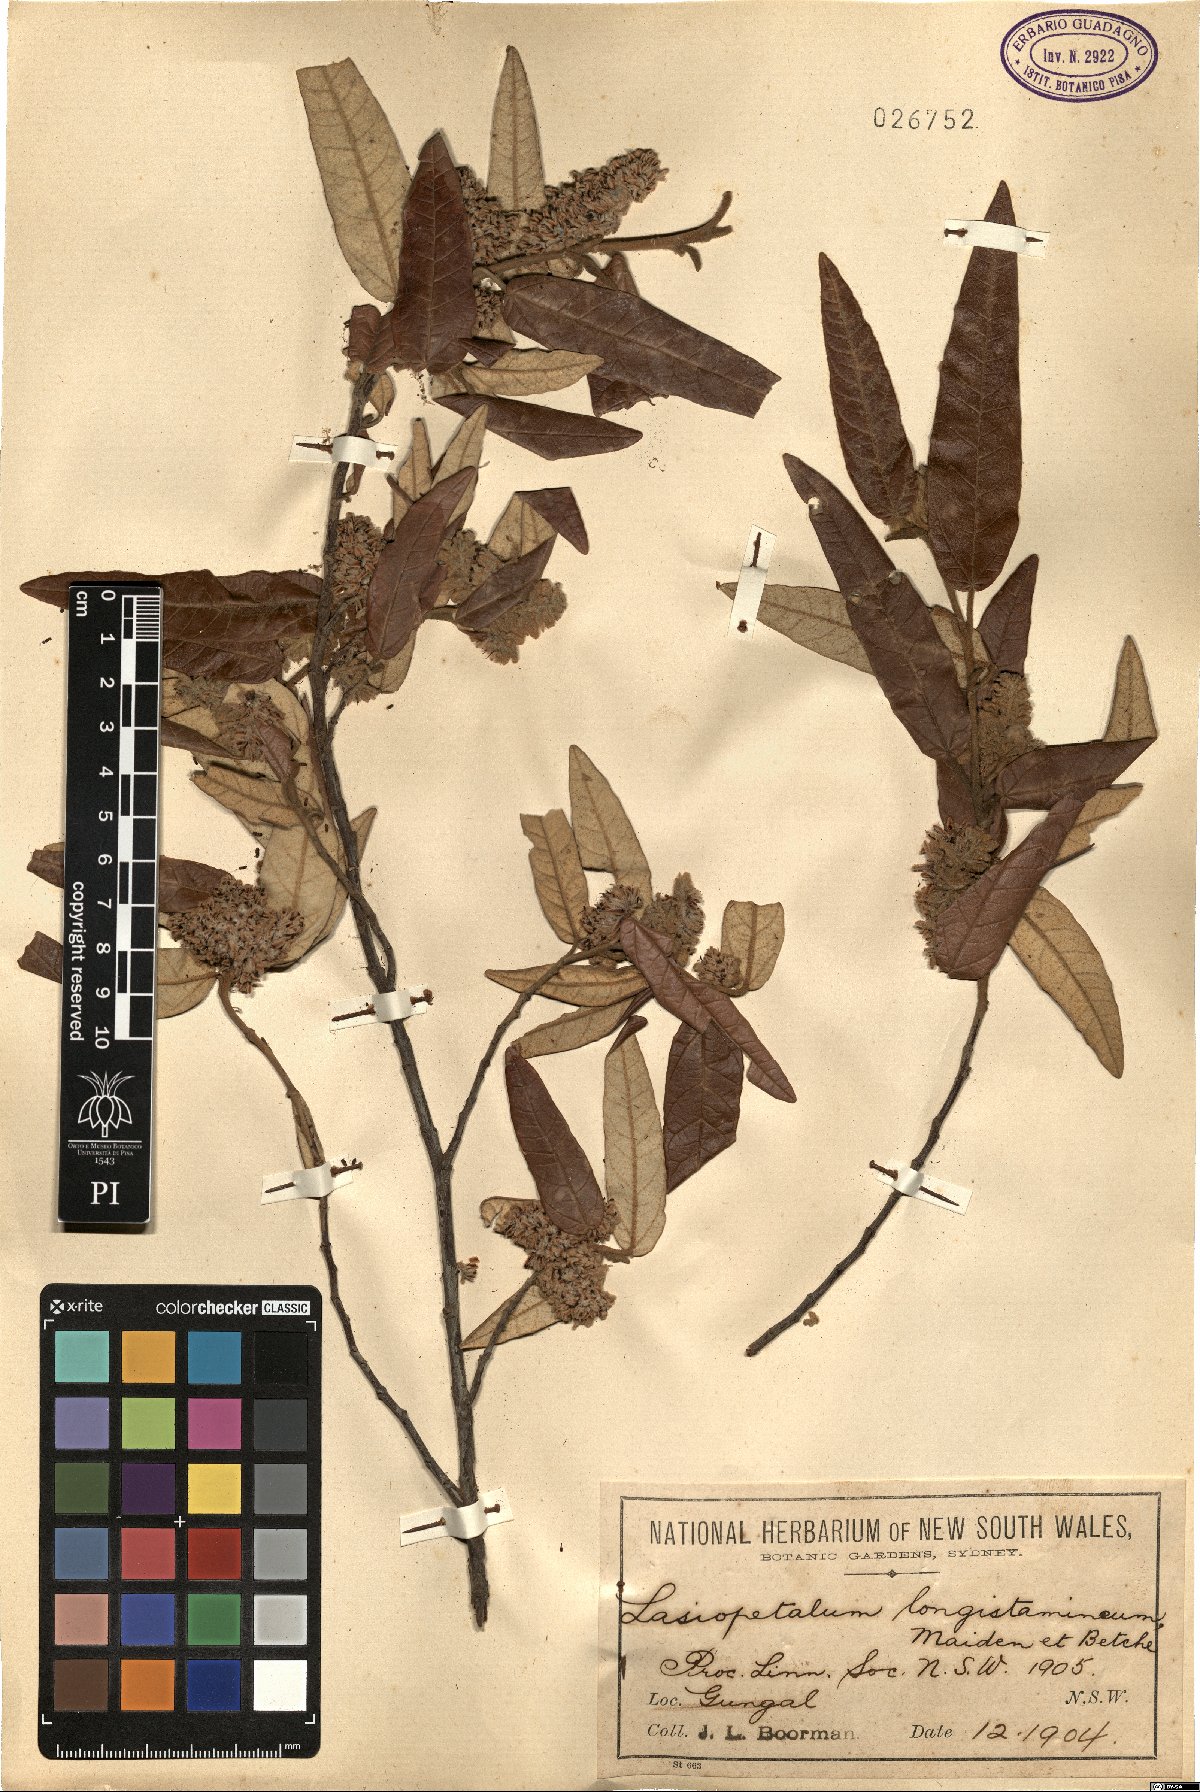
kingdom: Plantae
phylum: Tracheophyta
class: Magnoliopsida
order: Malvales
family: Malvaceae
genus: Lasiopetalum
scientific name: Lasiopetalum longistamineum
